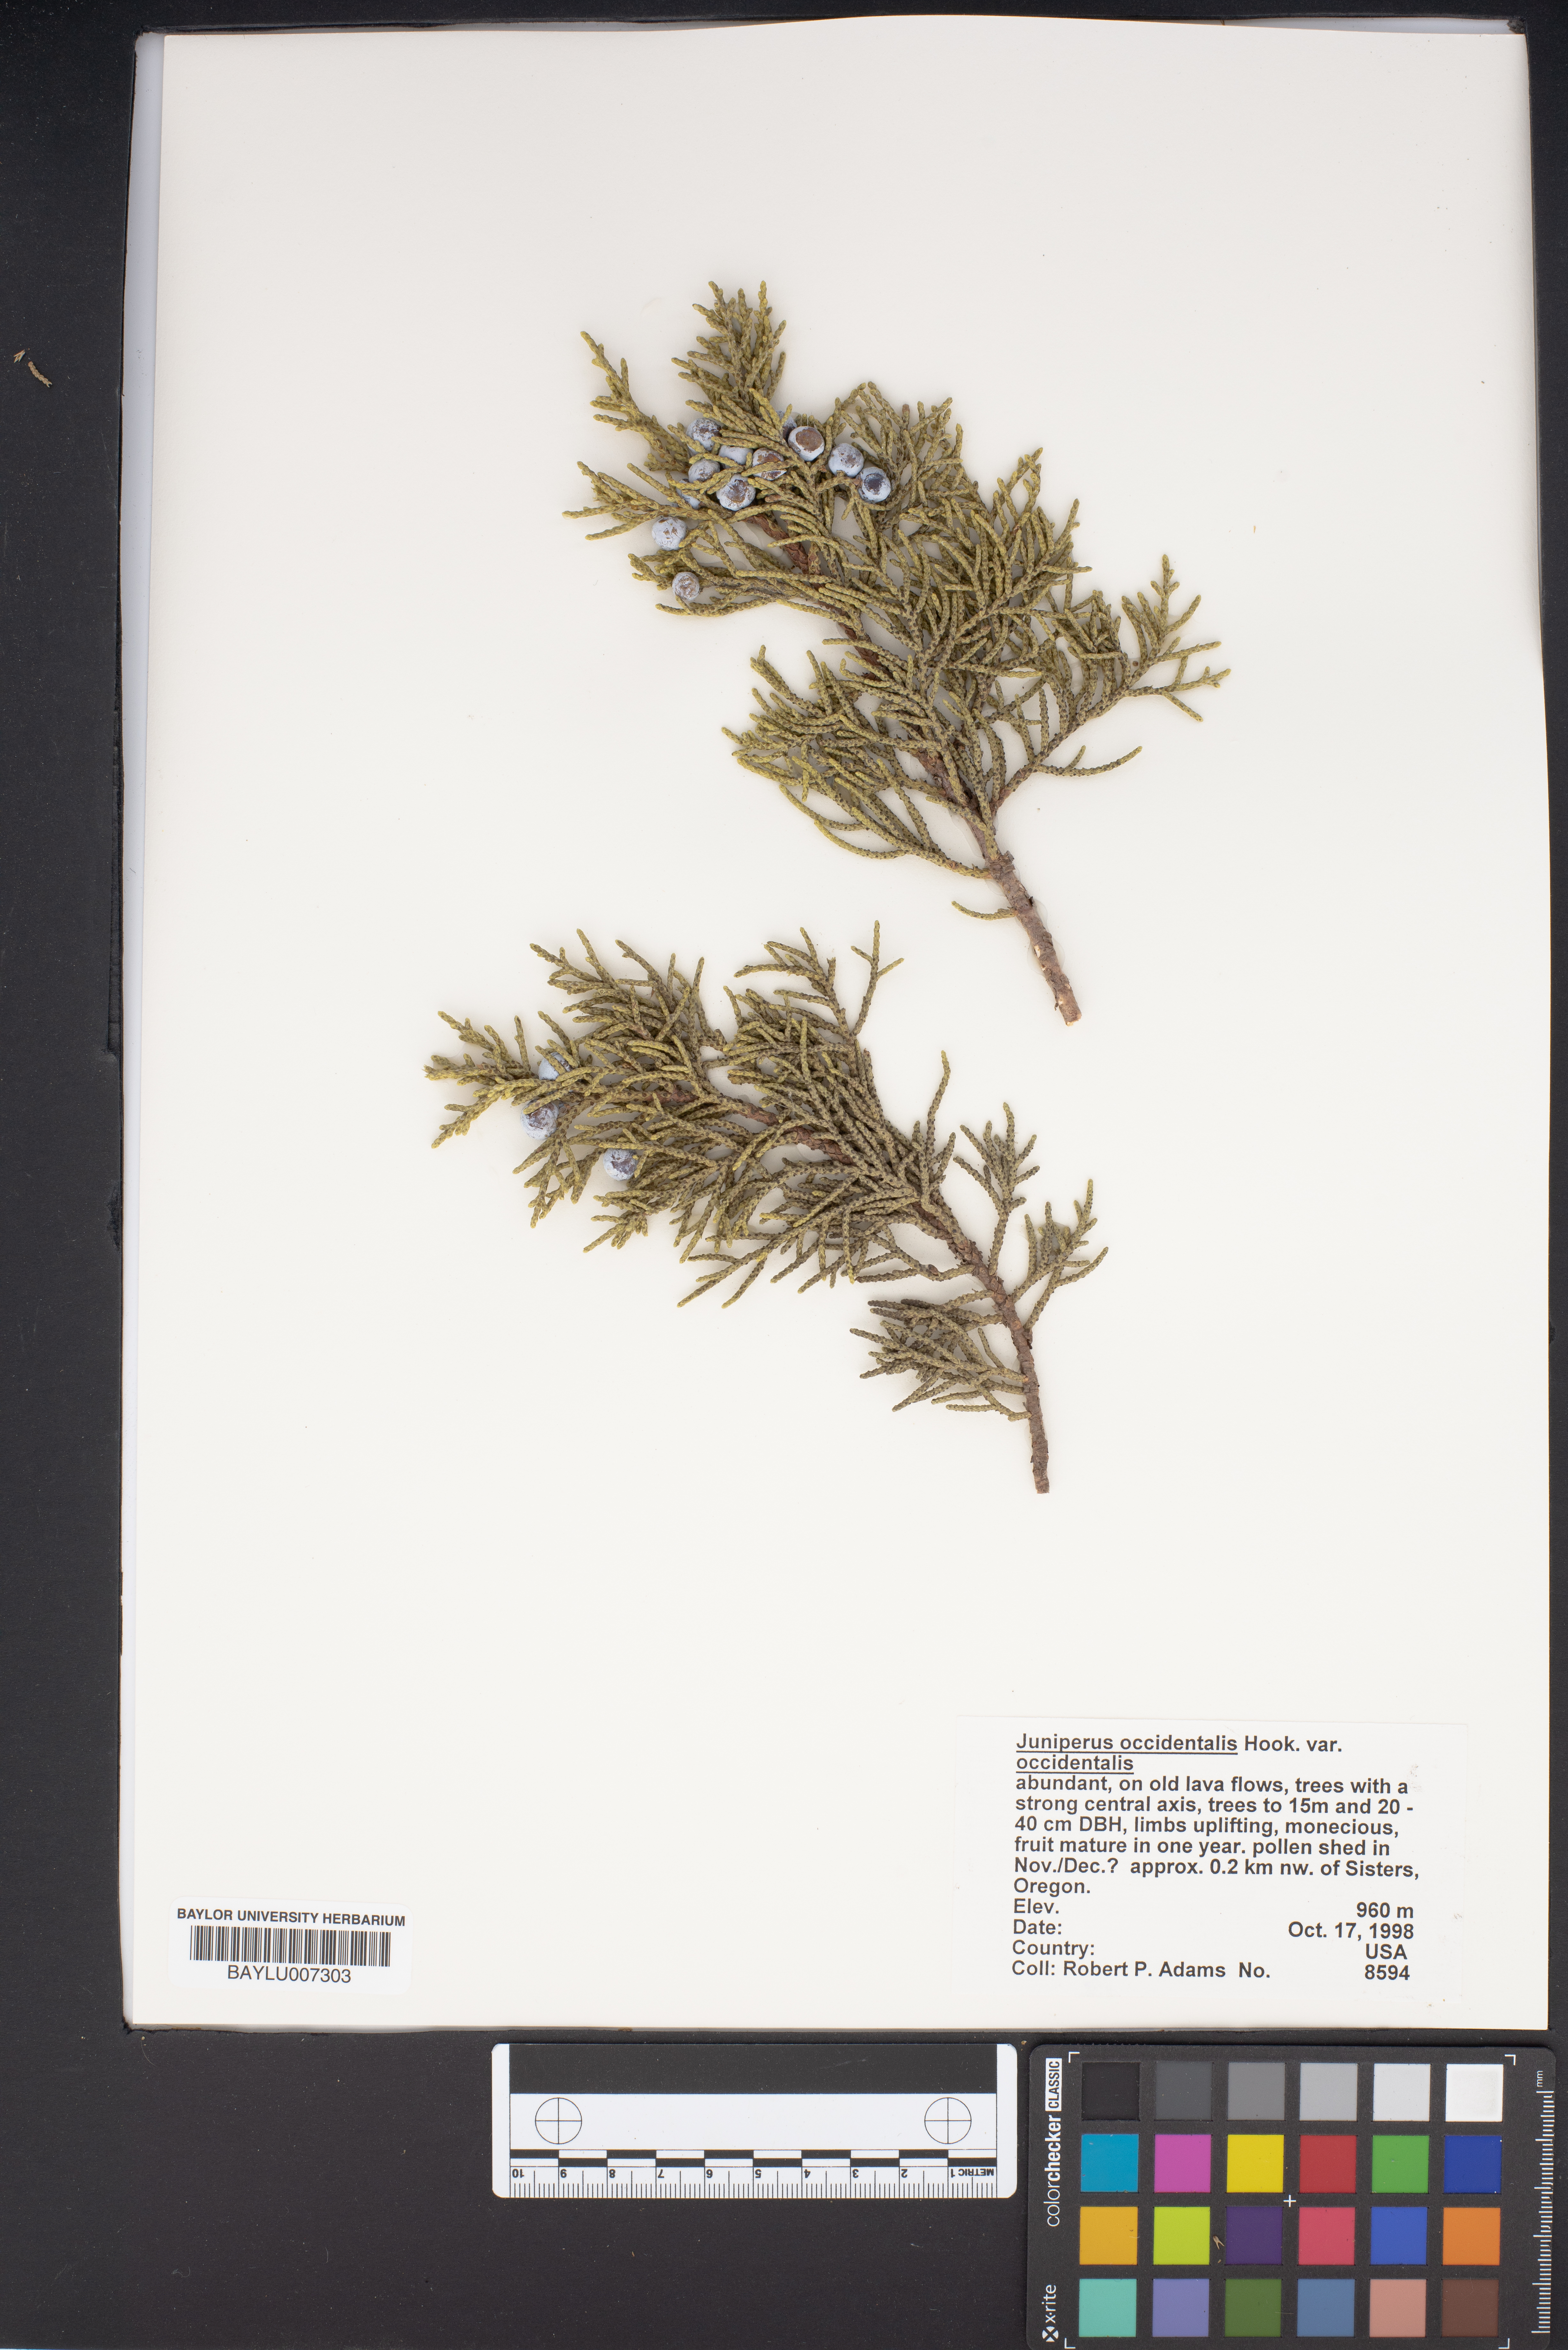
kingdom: Plantae
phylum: Tracheophyta
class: Pinopsida
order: Pinales
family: Cupressaceae
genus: Juniperus
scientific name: Juniperus occidentalis
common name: Western juniper
